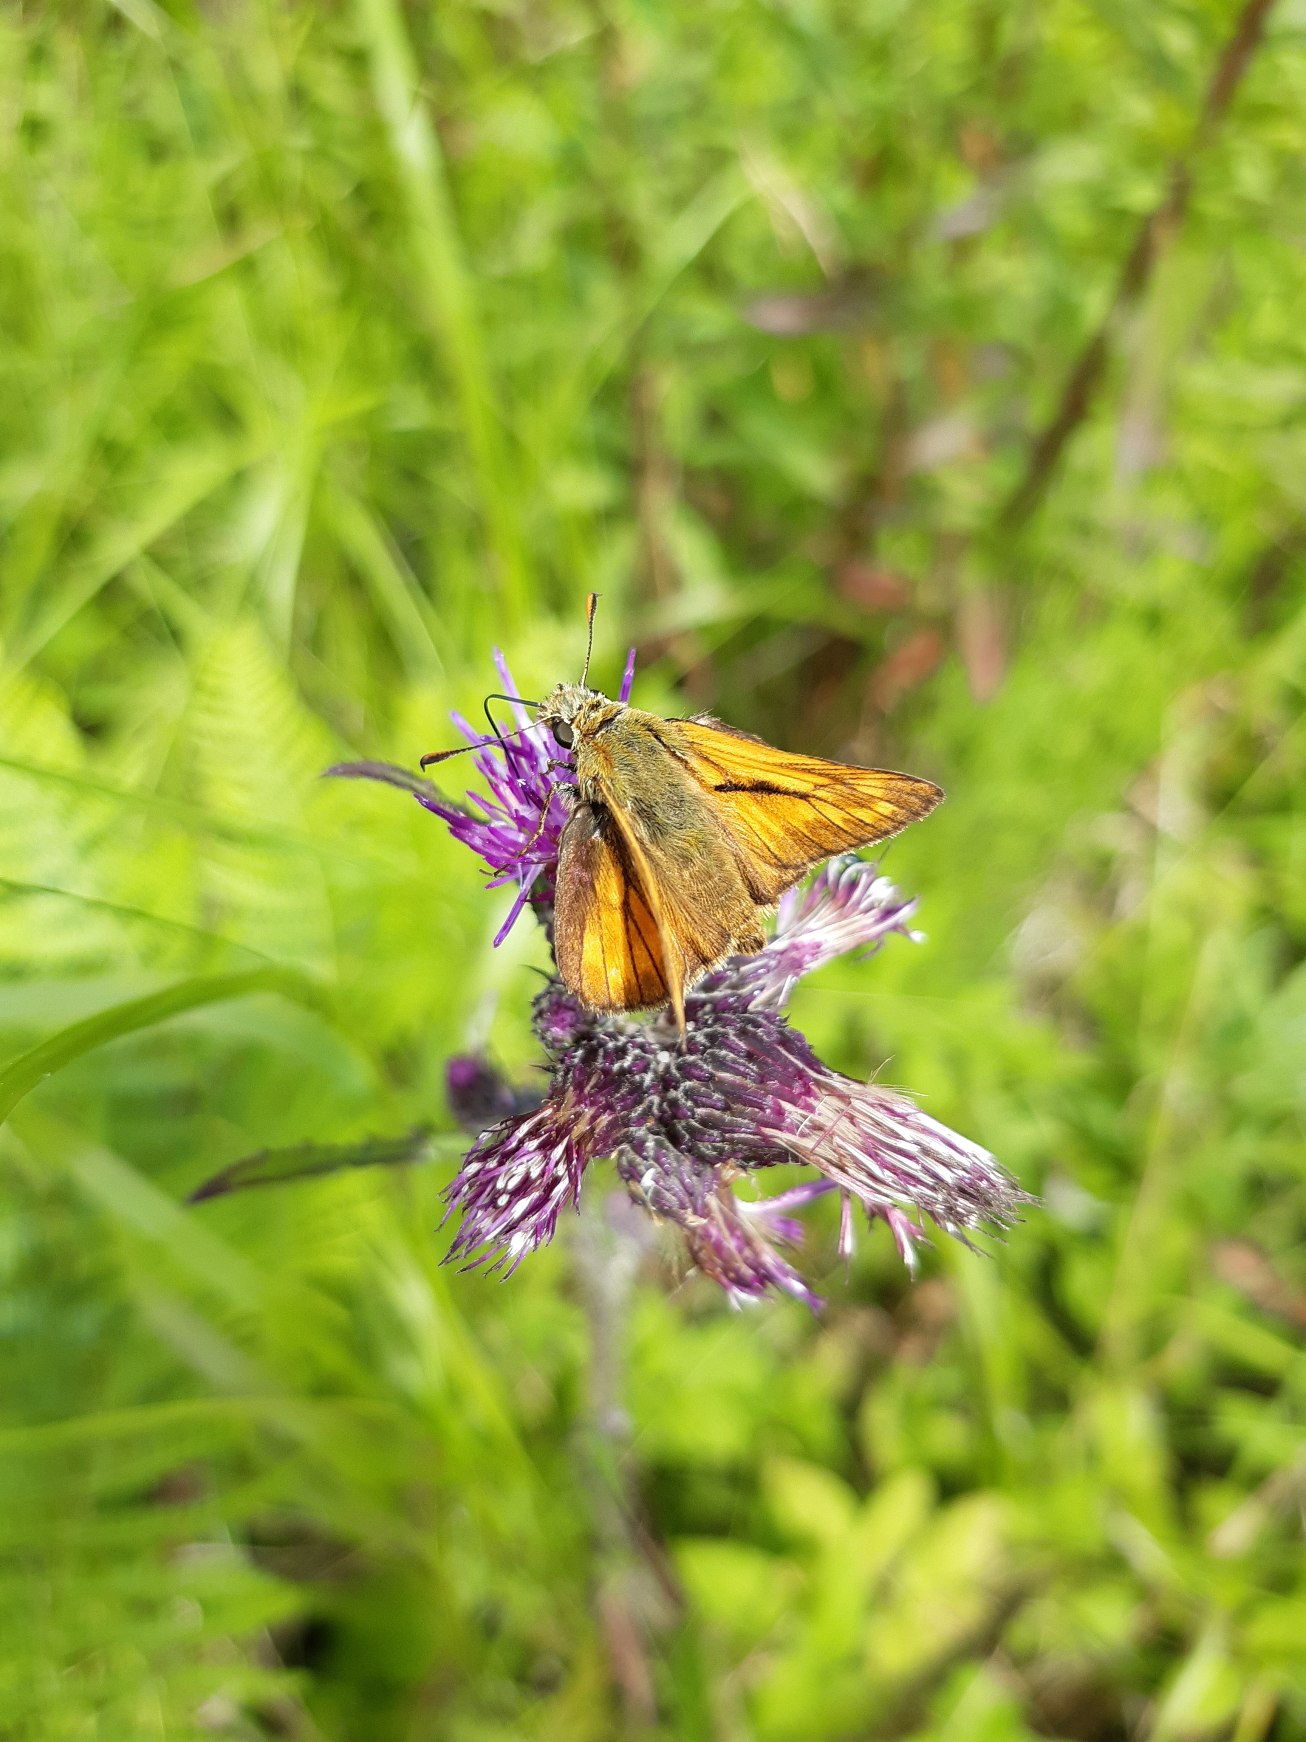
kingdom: Animalia
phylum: Arthropoda
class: Insecta
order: Lepidoptera
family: Hesperiidae
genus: Ochlodes
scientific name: Ochlodes venata
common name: Stor bredpande
